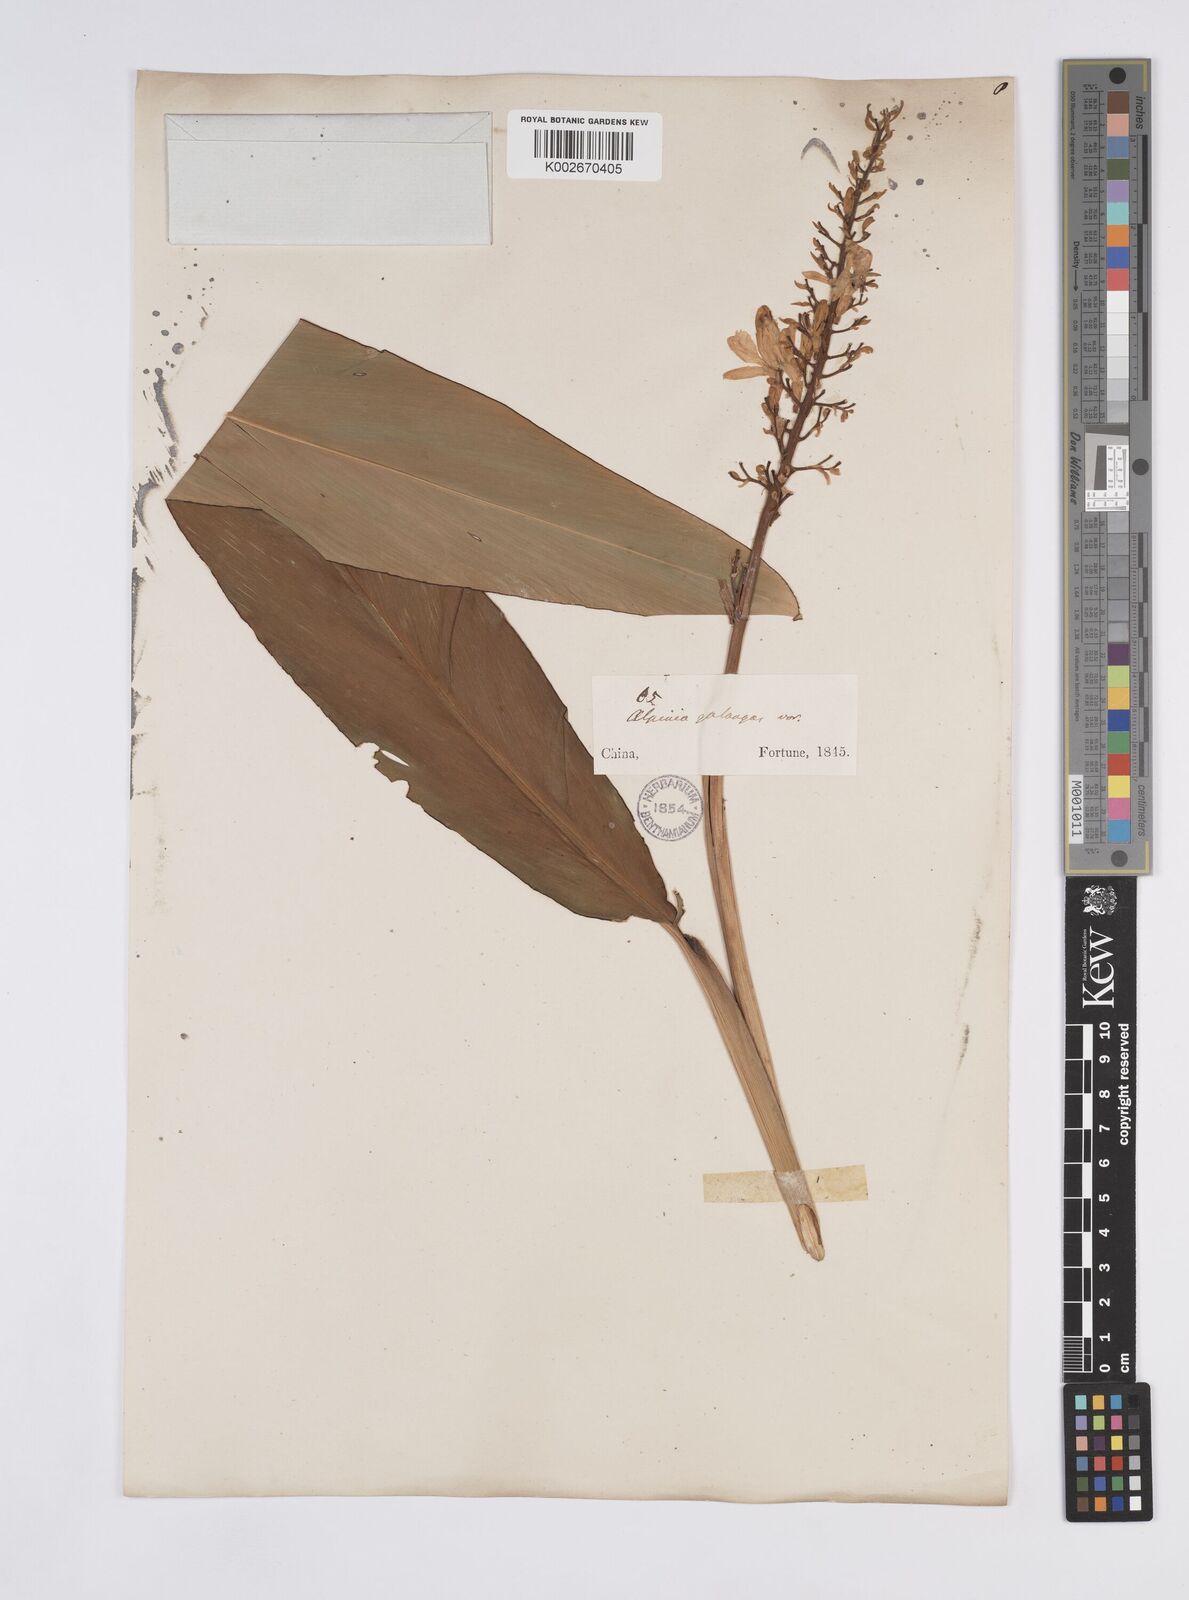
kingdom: Plantae
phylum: Tracheophyta
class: Liliopsida
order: Zingiberales
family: Zingiberaceae
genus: Alpinia
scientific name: Alpinia galanga
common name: Siamese-ginger
